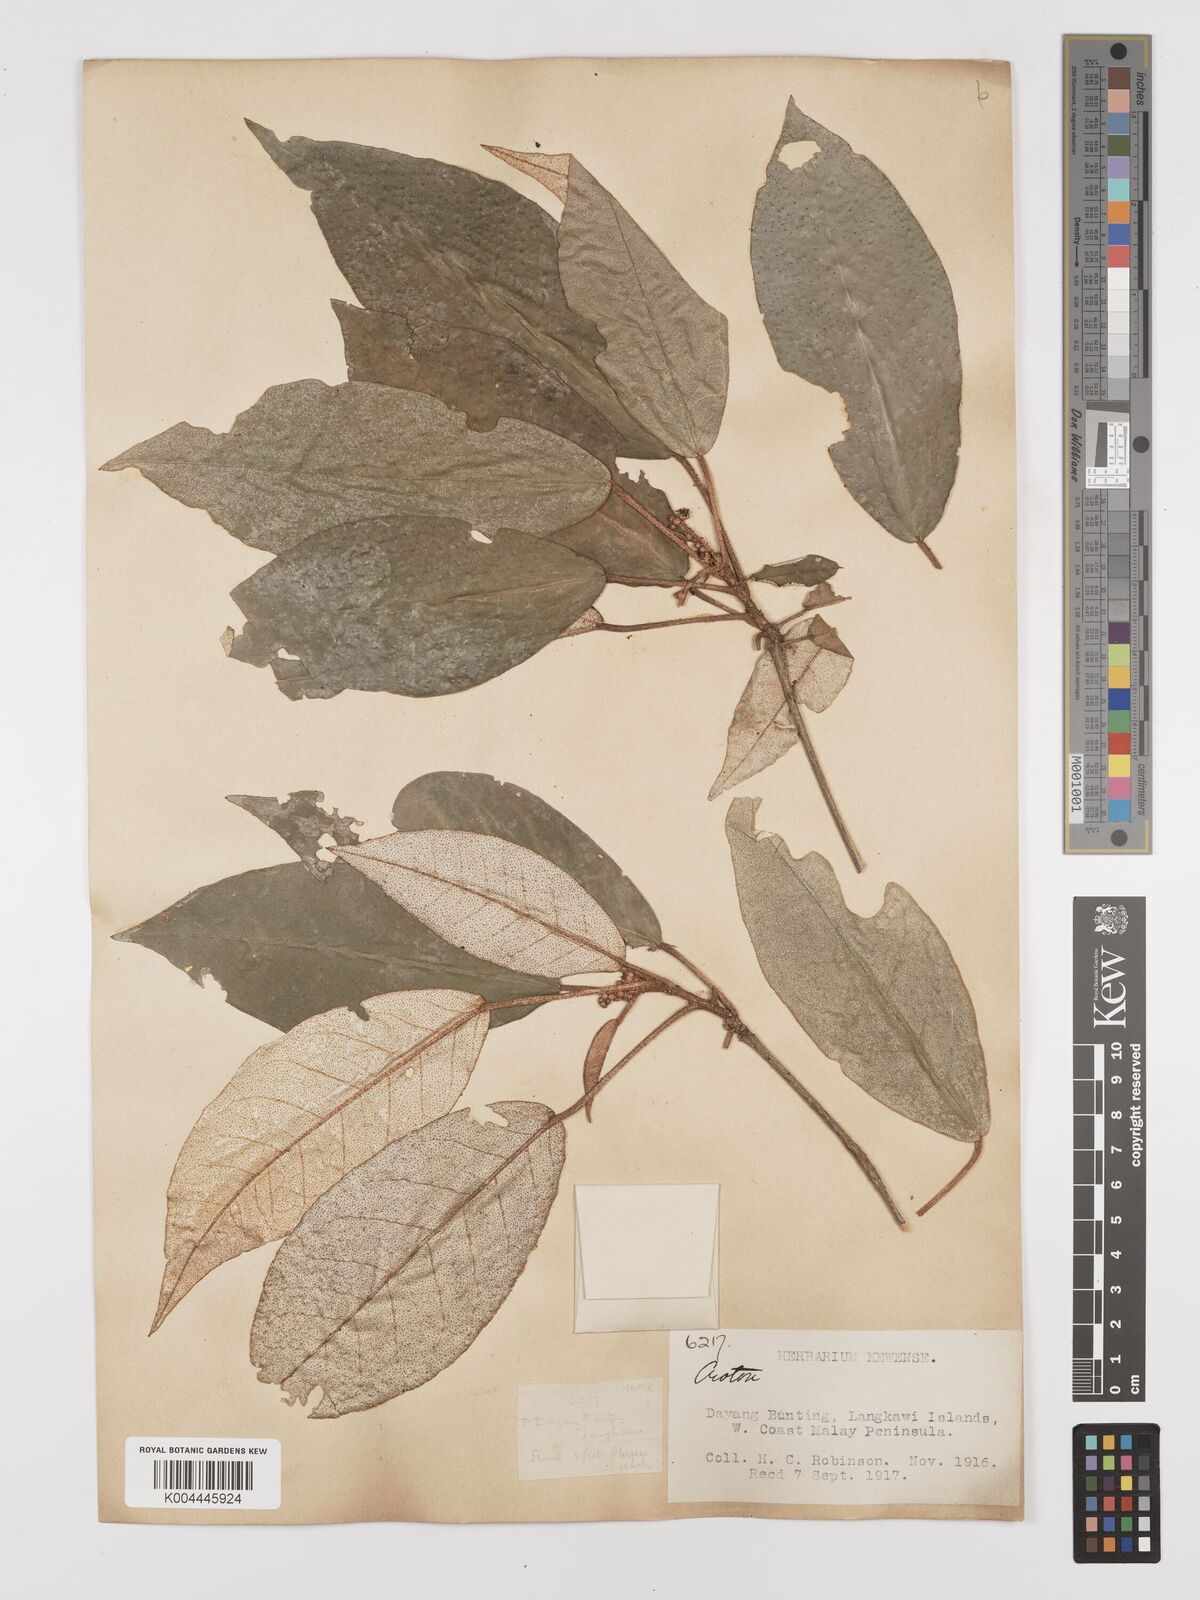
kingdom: Plantae
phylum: Tracheophyta
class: Magnoliopsida
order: Malpighiales
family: Euphorbiaceae
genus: Croton
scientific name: Croton cascarilloides
